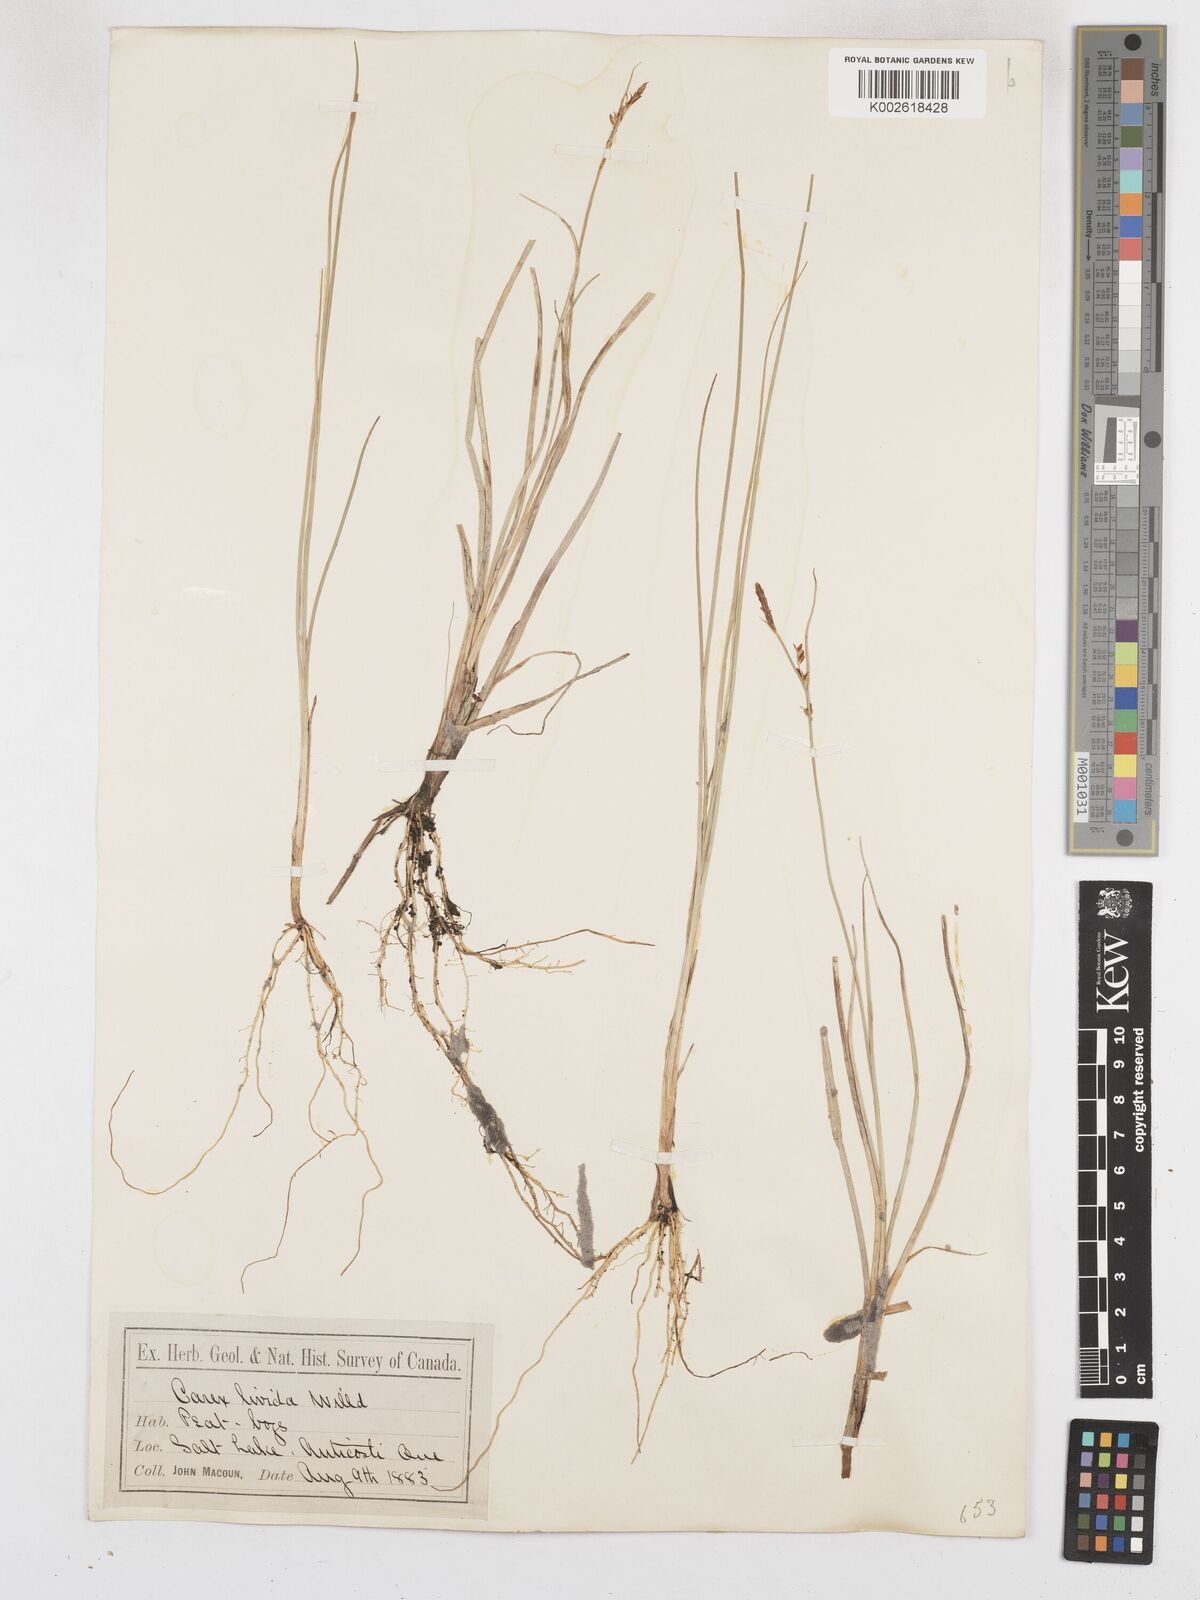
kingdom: Plantae
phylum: Tracheophyta
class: Liliopsida
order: Poales
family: Cyperaceae
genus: Carex
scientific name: Carex livida
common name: Livid sedge
